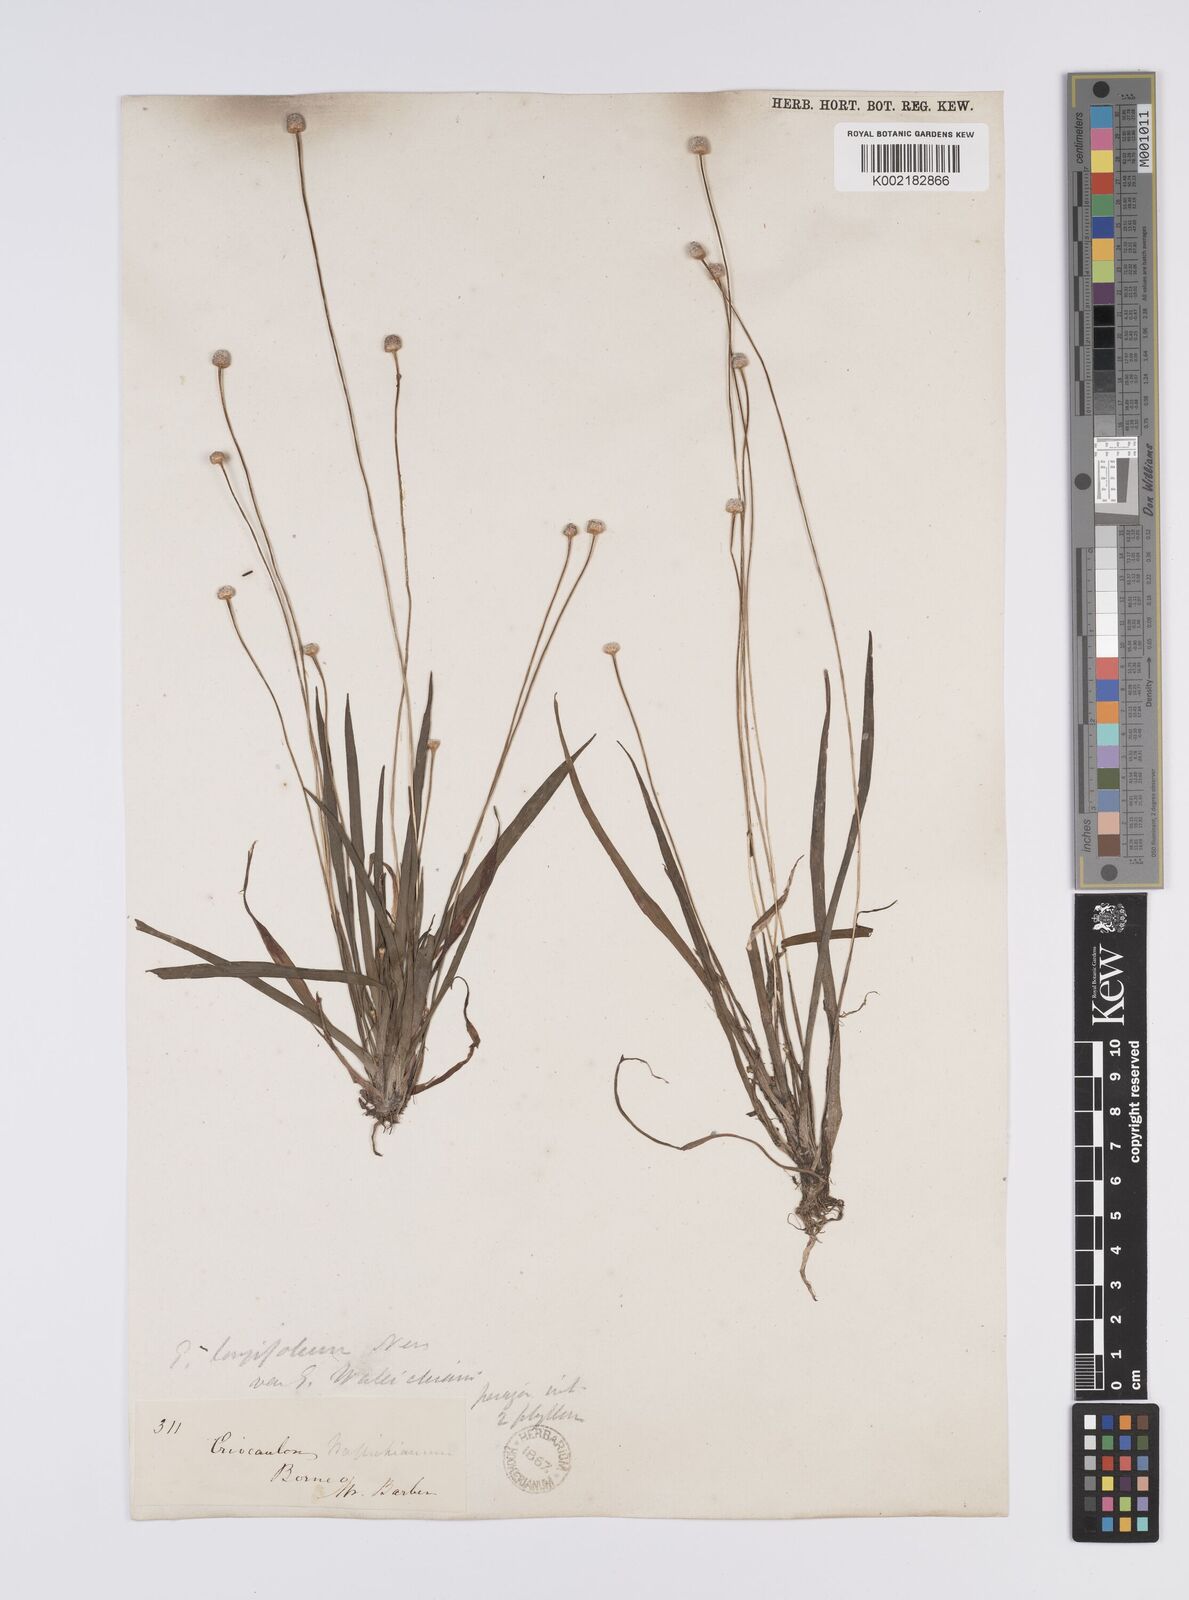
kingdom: Plantae
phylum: Tracheophyta
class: Liliopsida
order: Poales
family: Eriocaulaceae
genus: Eriocaulon
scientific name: Eriocaulon willdenovianum
